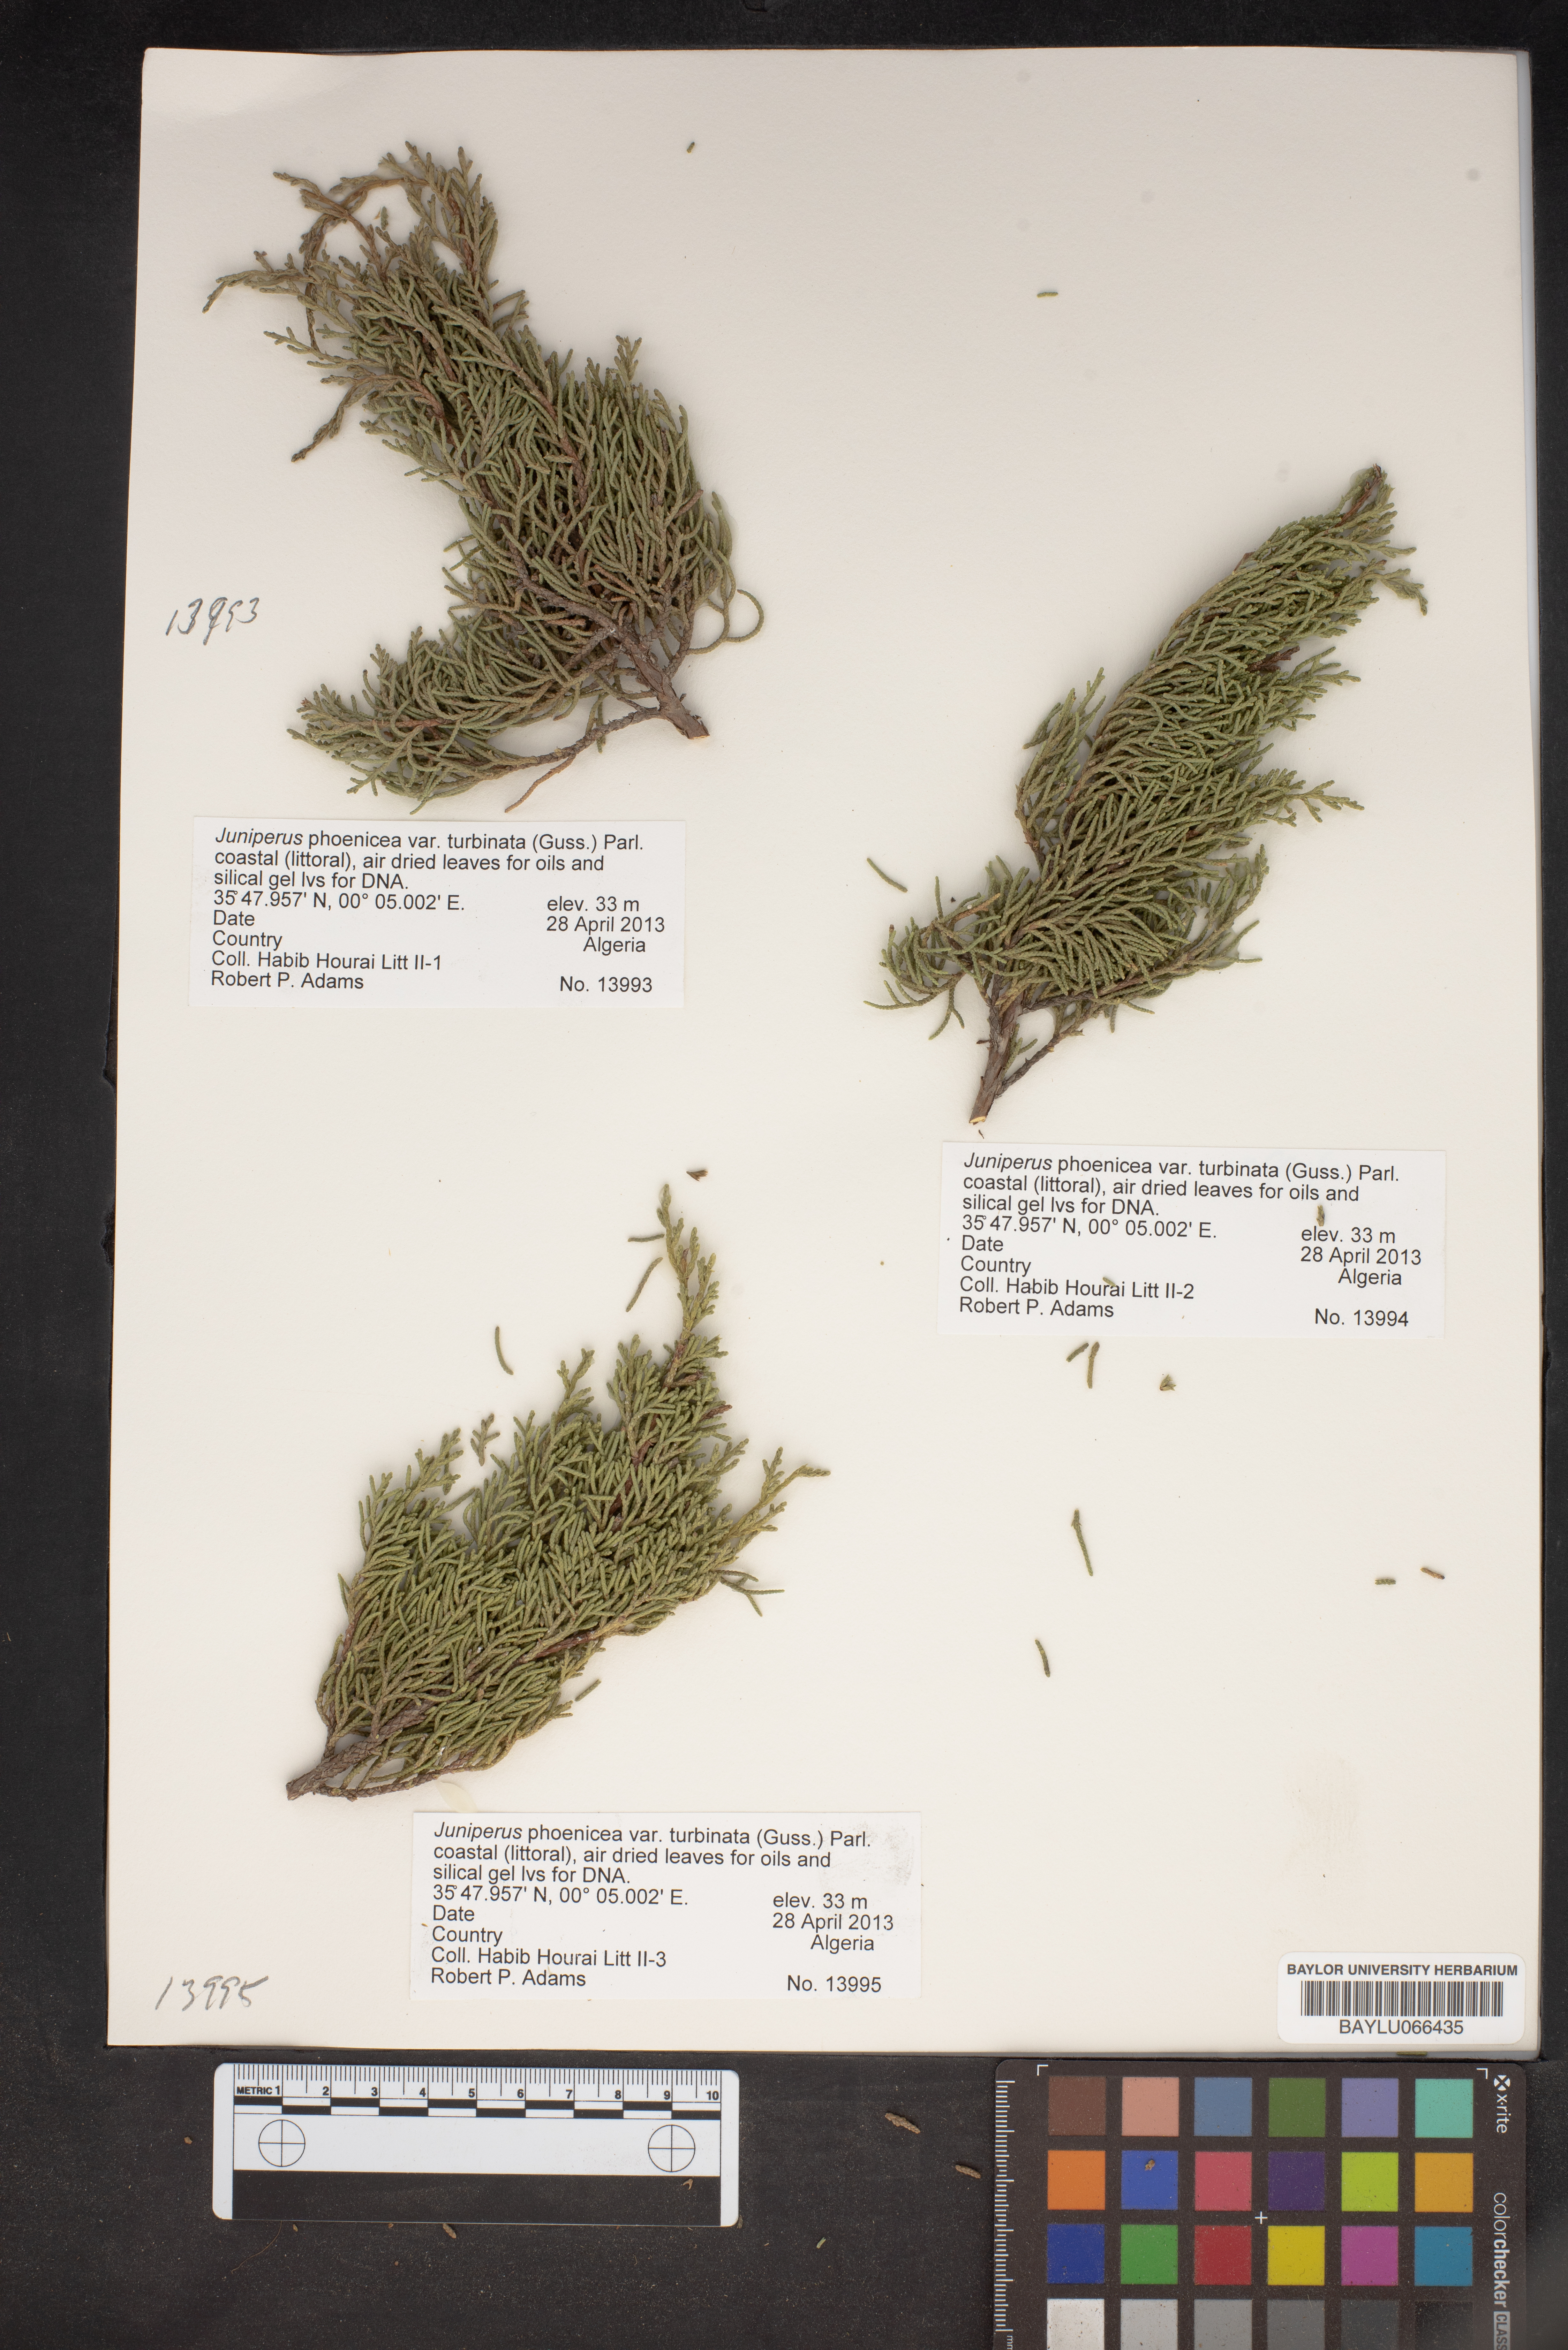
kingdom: Plantae
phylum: Tracheophyta
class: Pinopsida
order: Pinales
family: Cupressaceae
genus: Juniperus
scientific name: Juniperus phoenicea
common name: Phoenician juniper
